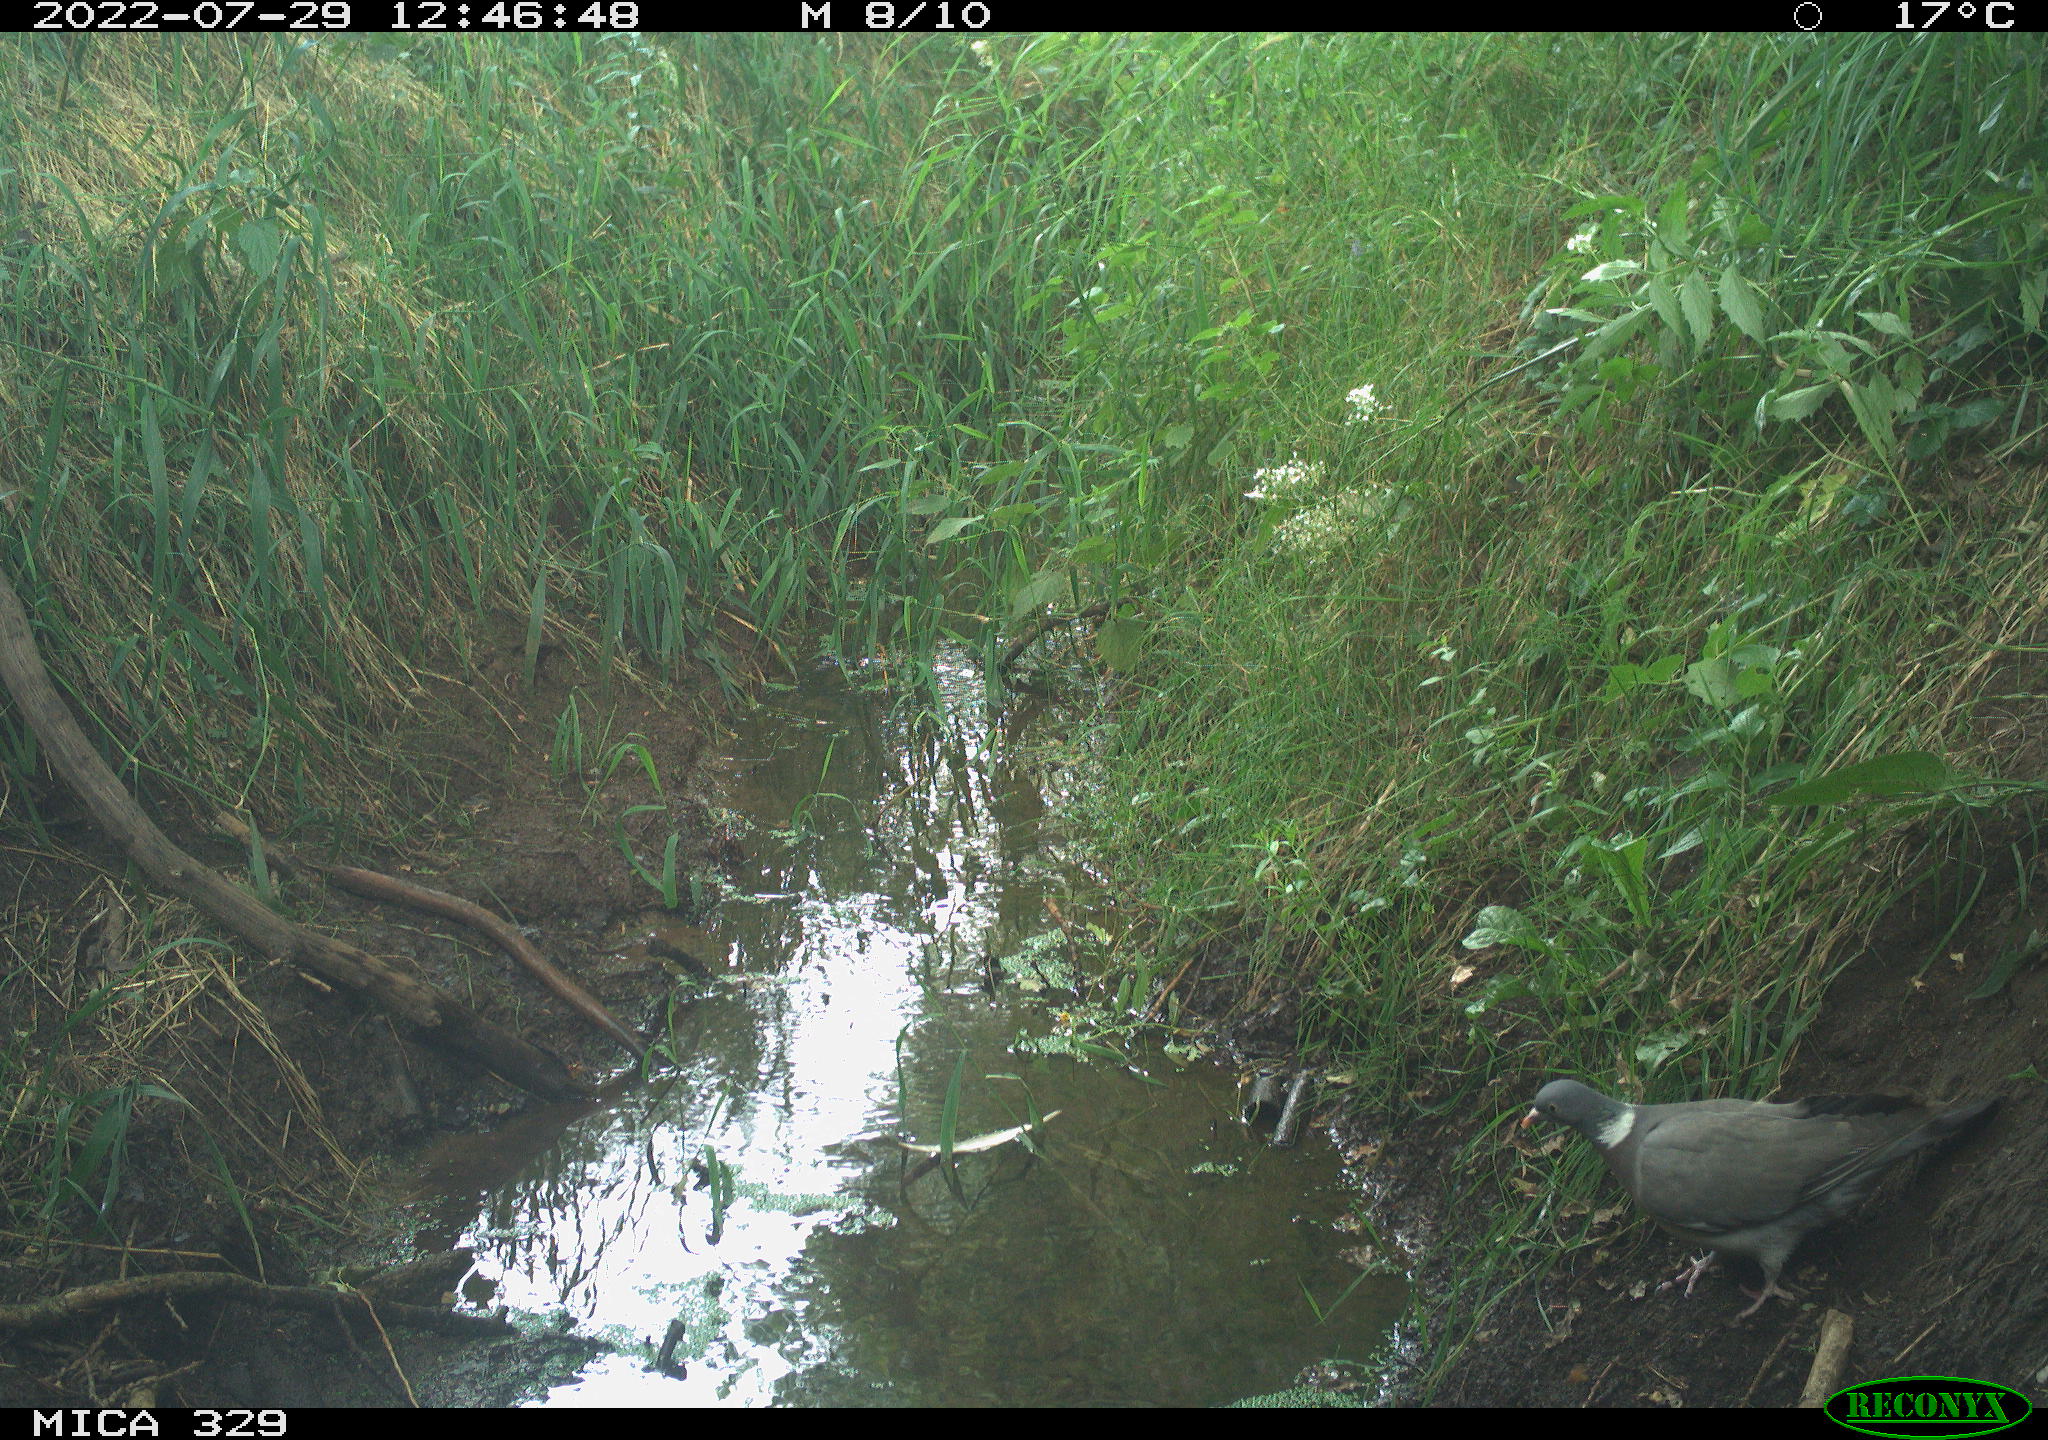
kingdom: Animalia
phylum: Chordata
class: Aves
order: Columbiformes
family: Columbidae
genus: Columba
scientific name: Columba palumbus
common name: Common wood pigeon
